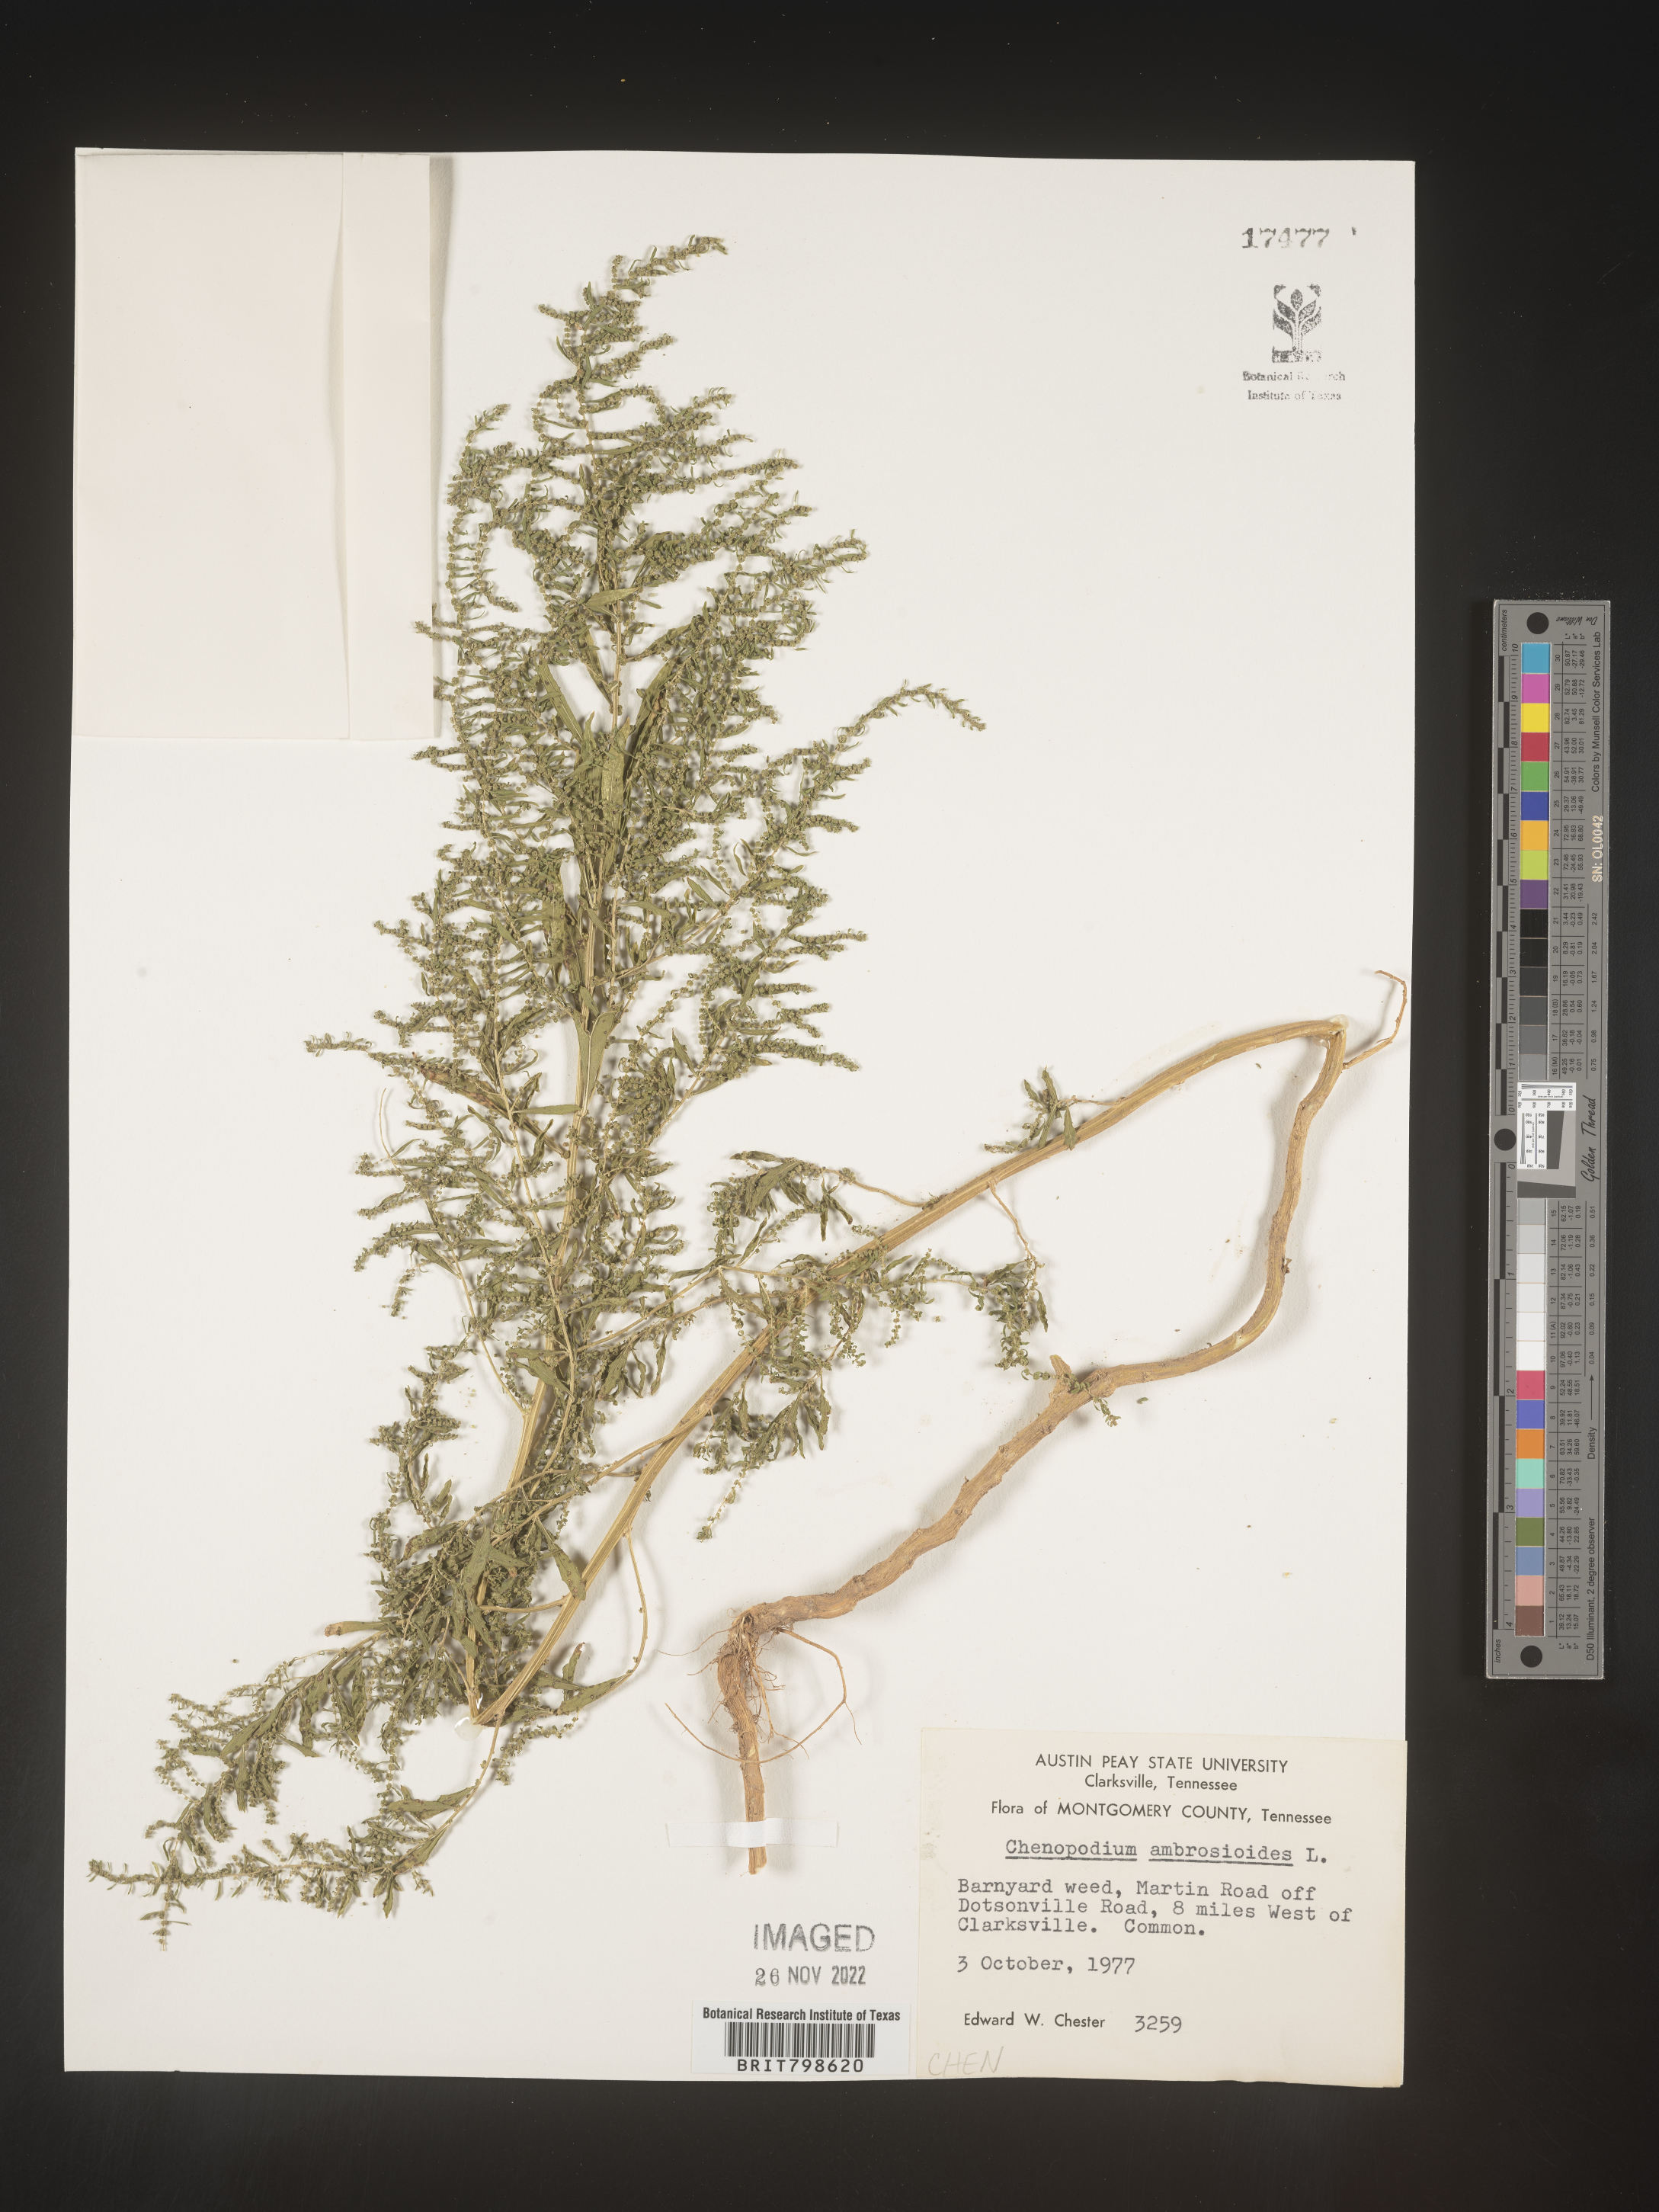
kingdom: Plantae
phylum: Tracheophyta
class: Magnoliopsida
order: Caryophyllales
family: Amaranthaceae
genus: Dysphania
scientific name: Dysphania ambrosioides
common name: Wormseed
